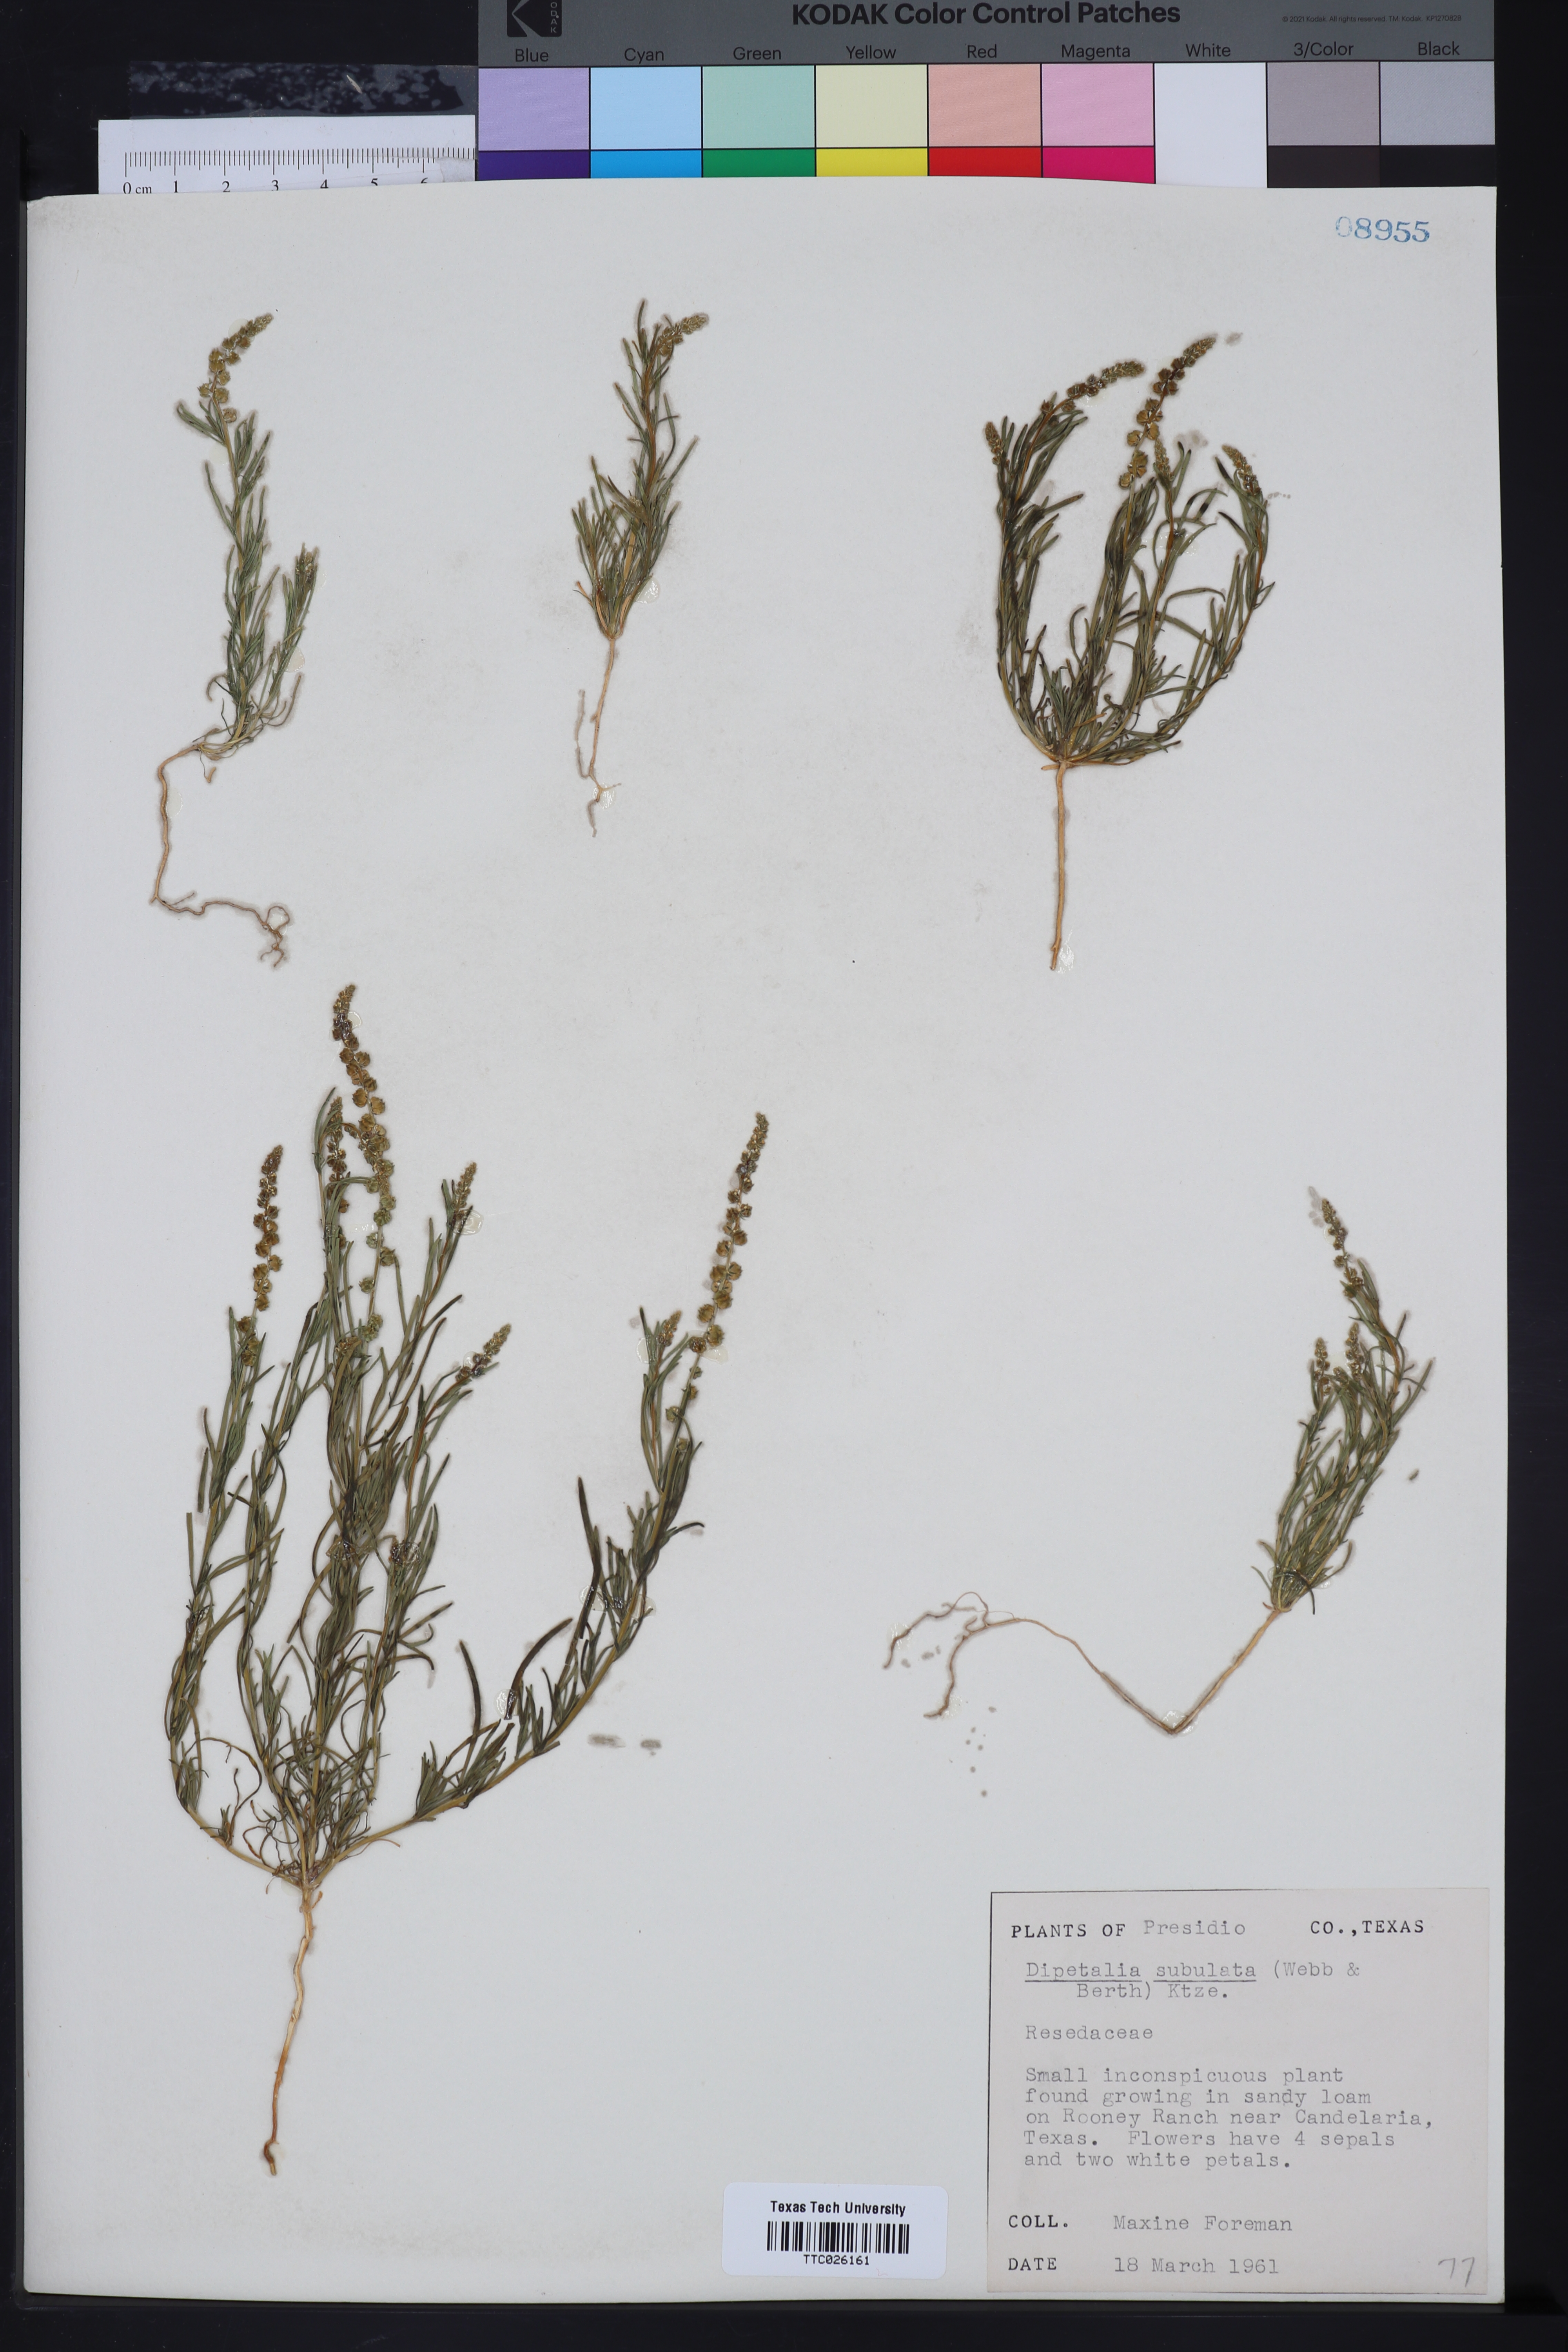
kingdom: Plantae
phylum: Tracheophyta
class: Magnoliopsida
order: Brassicales
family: Resedaceae
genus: Oligomeris
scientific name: Oligomeris linifolia
